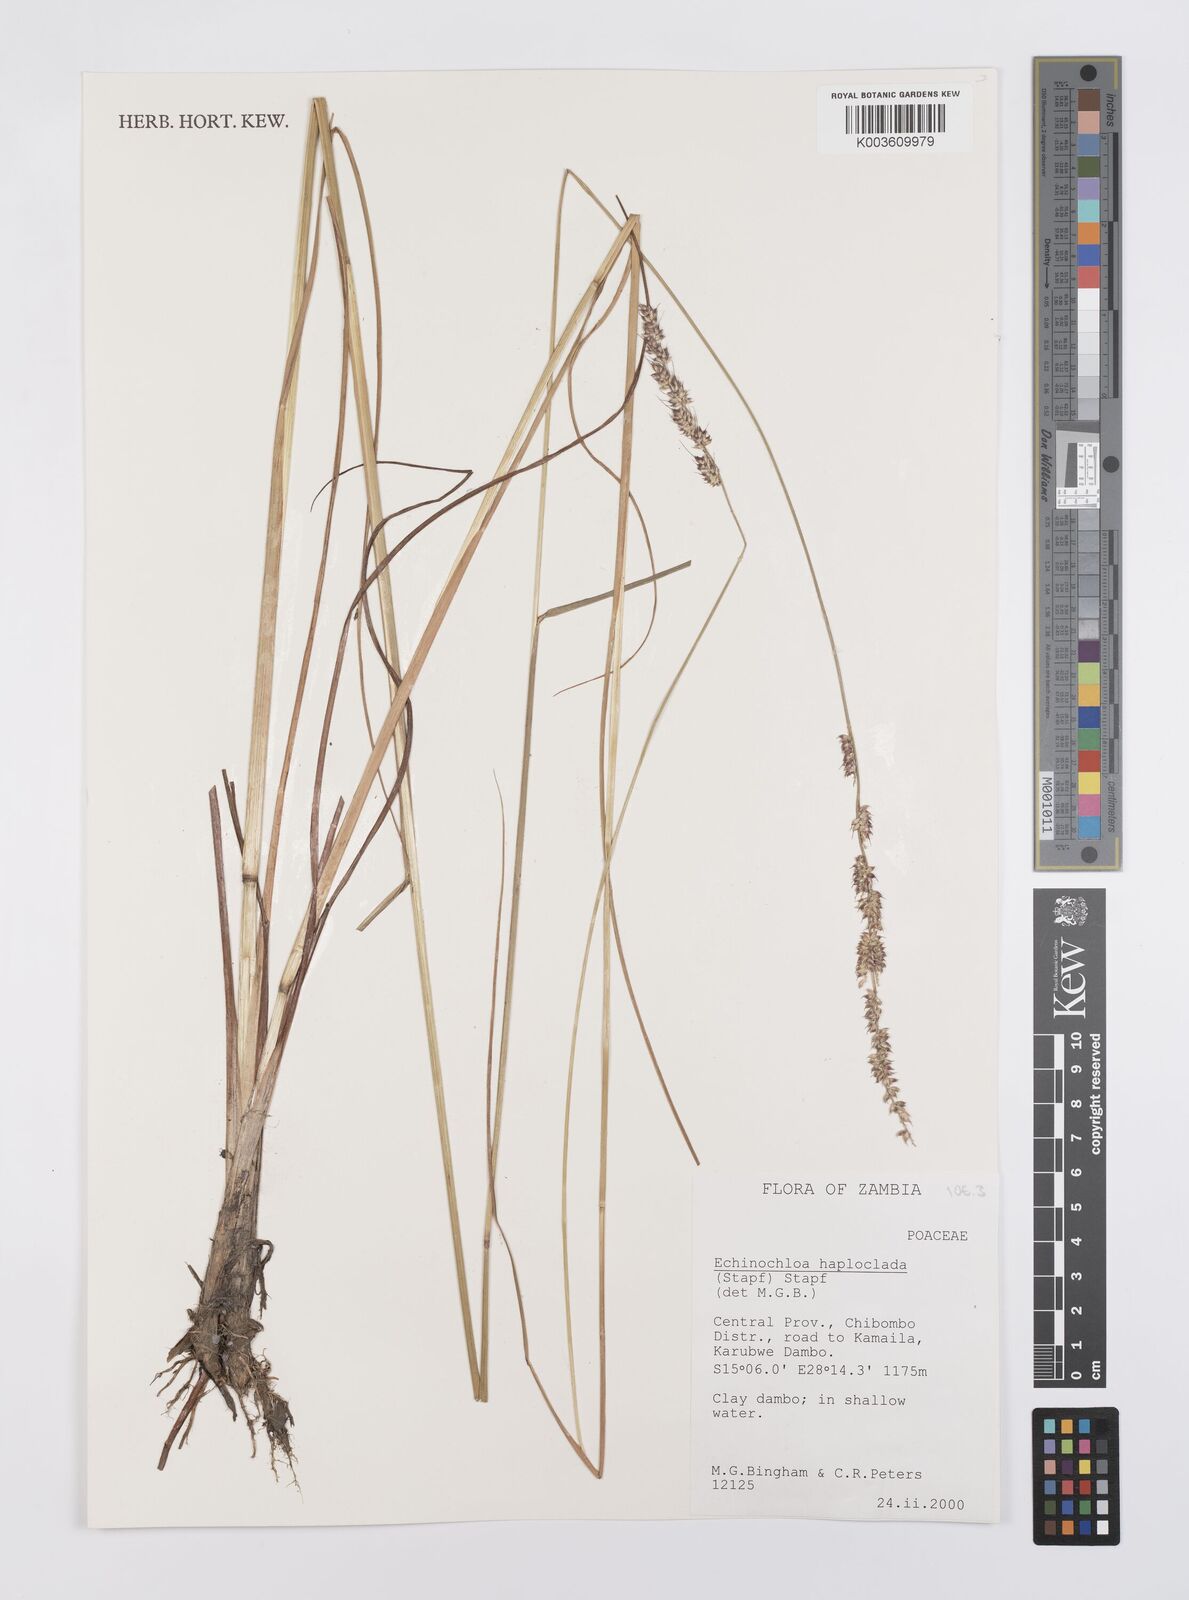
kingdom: Plantae
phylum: Tracheophyta
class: Liliopsida
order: Poales
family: Poaceae
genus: Echinochloa
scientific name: Echinochloa haploclada
